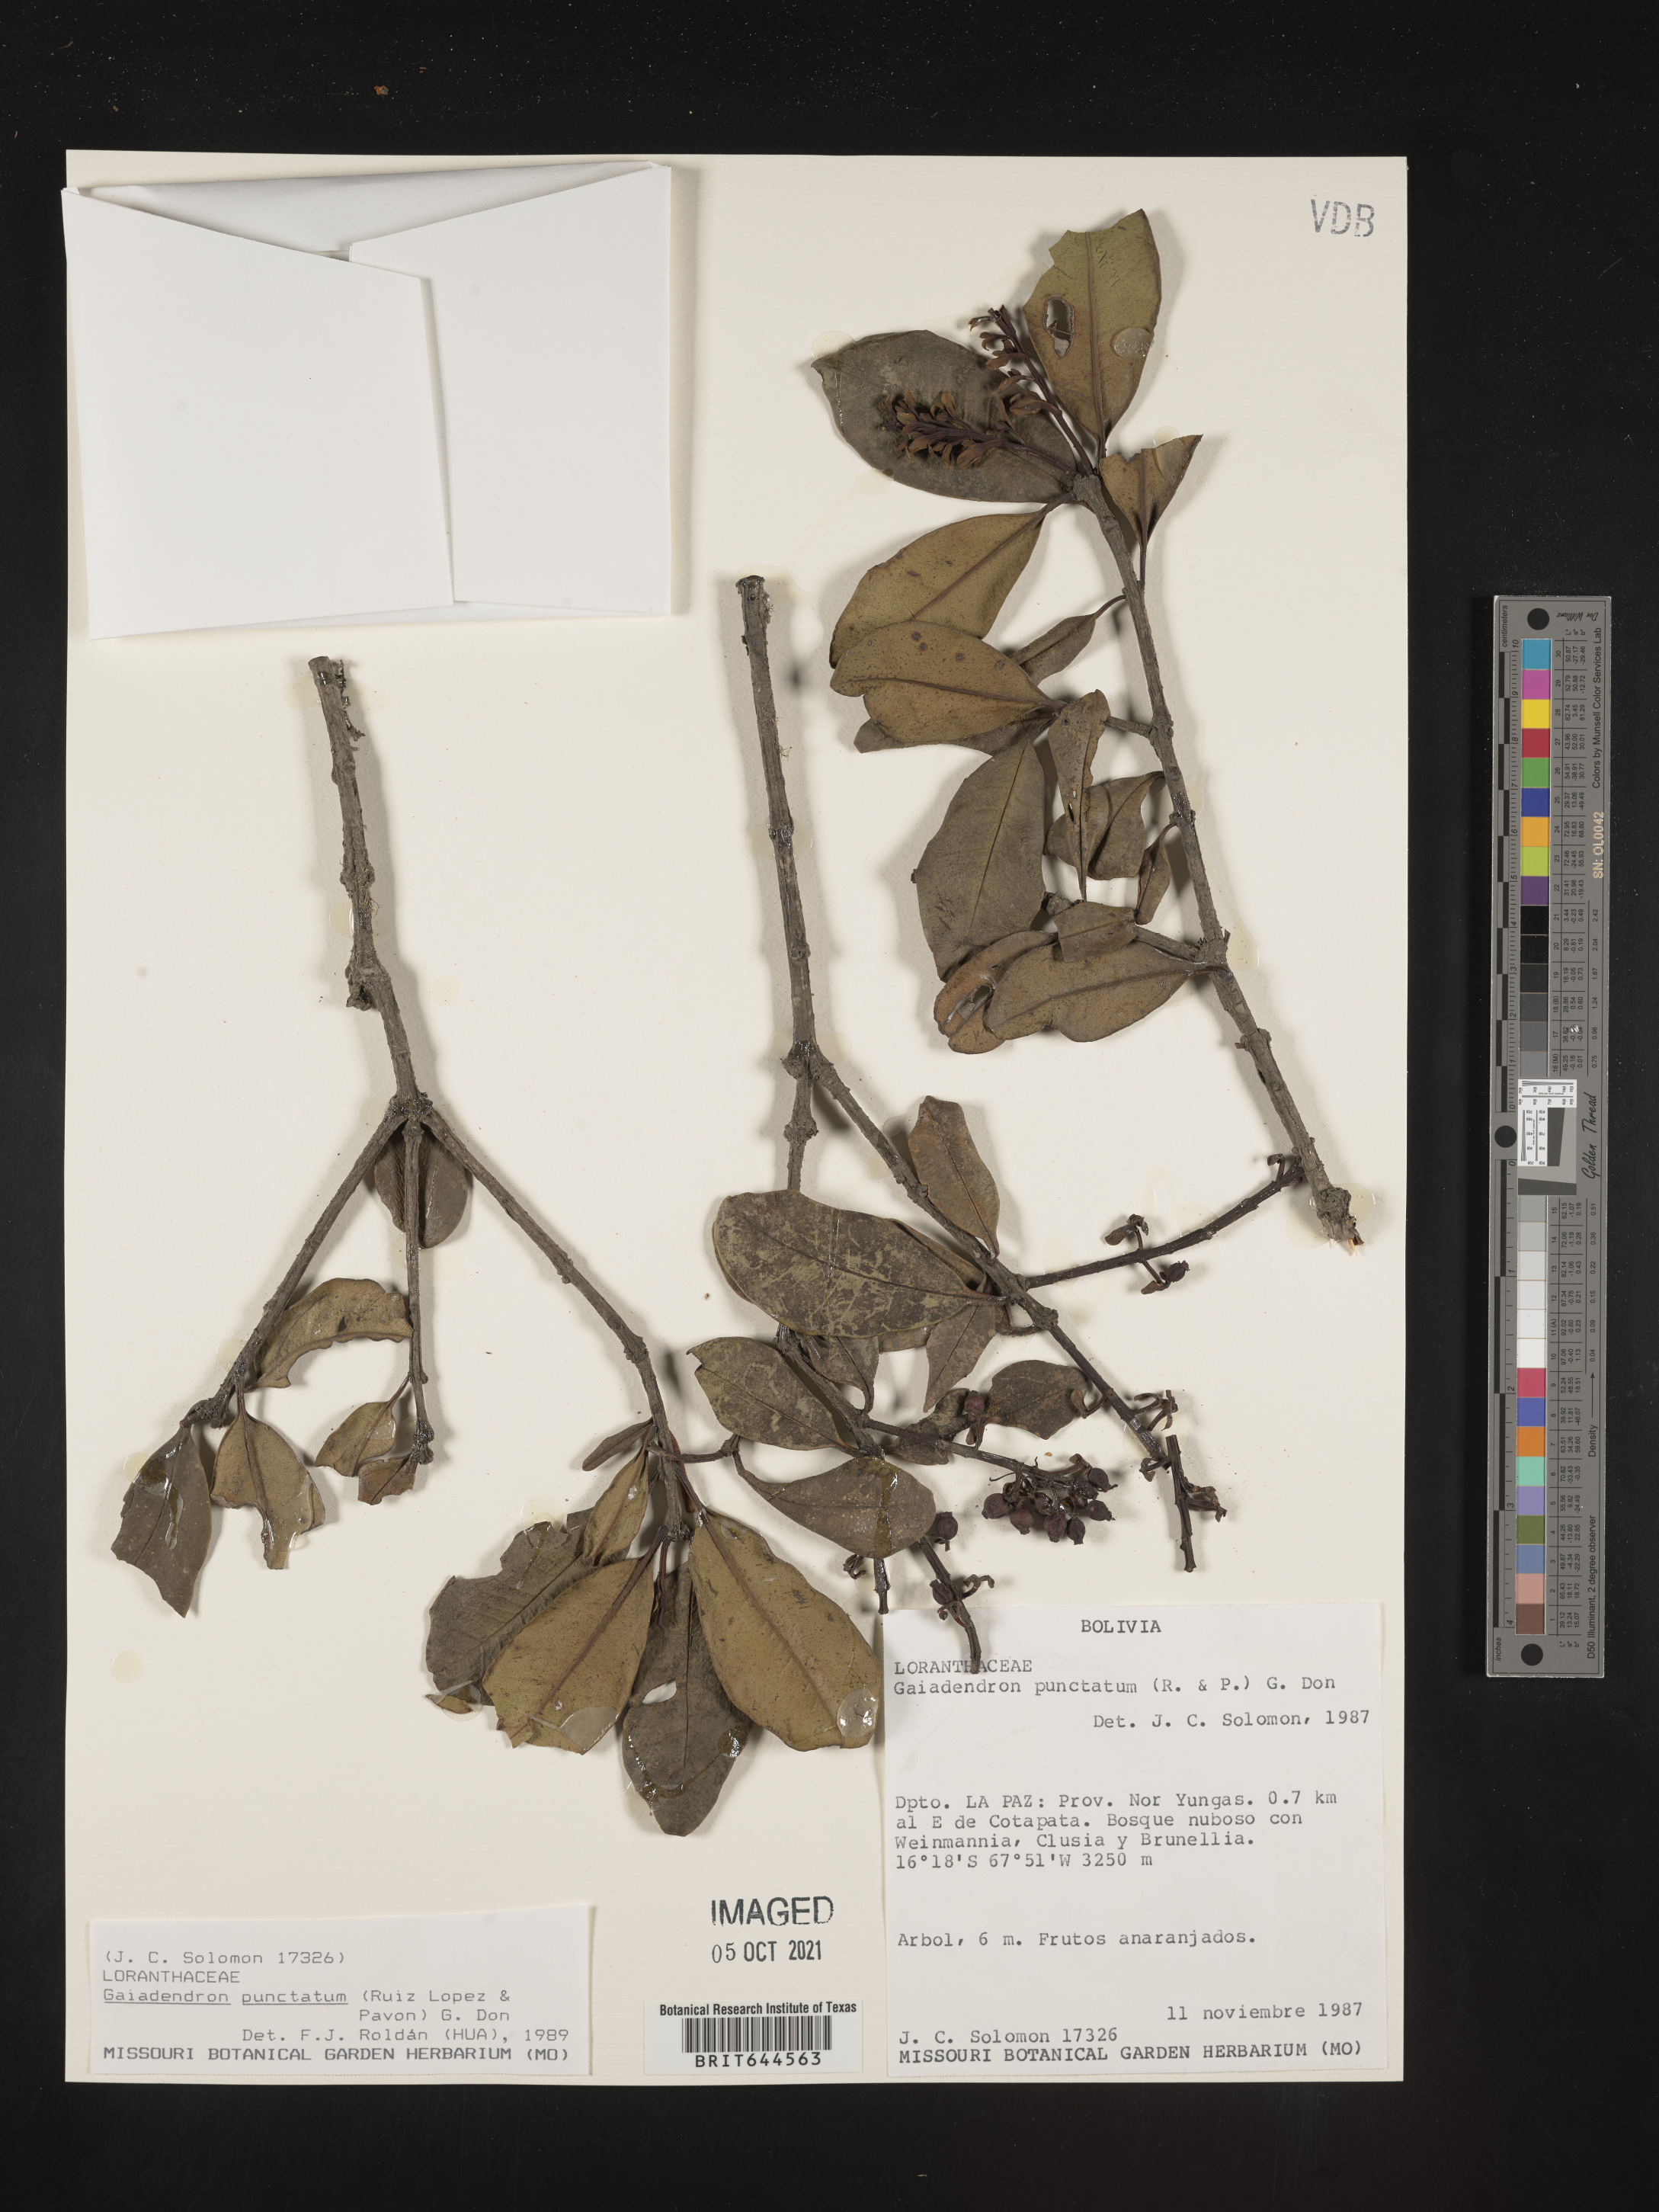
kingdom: Plantae
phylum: Tracheophyta
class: Magnoliopsida
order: Santalales
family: Loranthaceae
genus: Gaiadendron
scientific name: Gaiadendron
